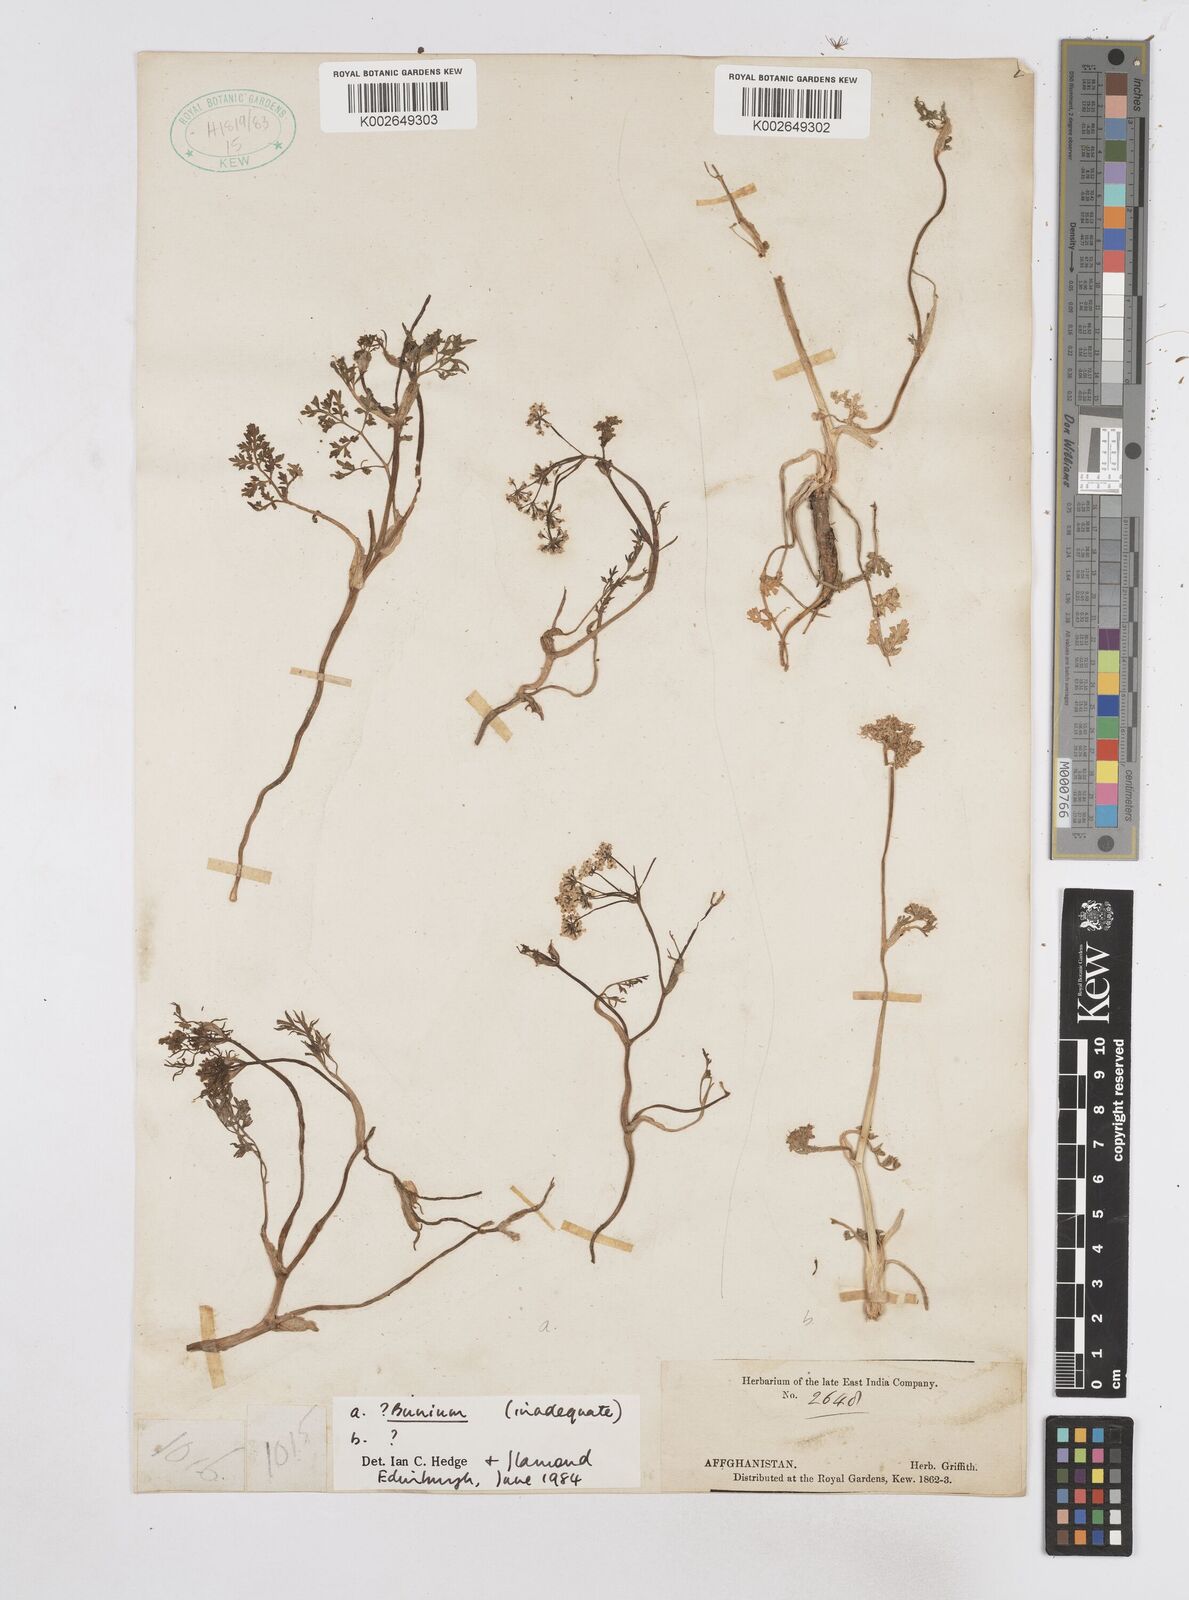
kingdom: Plantae
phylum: Tracheophyta
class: Magnoliopsida
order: Apiales
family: Apiaceae
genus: Bunium
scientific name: Bunium
